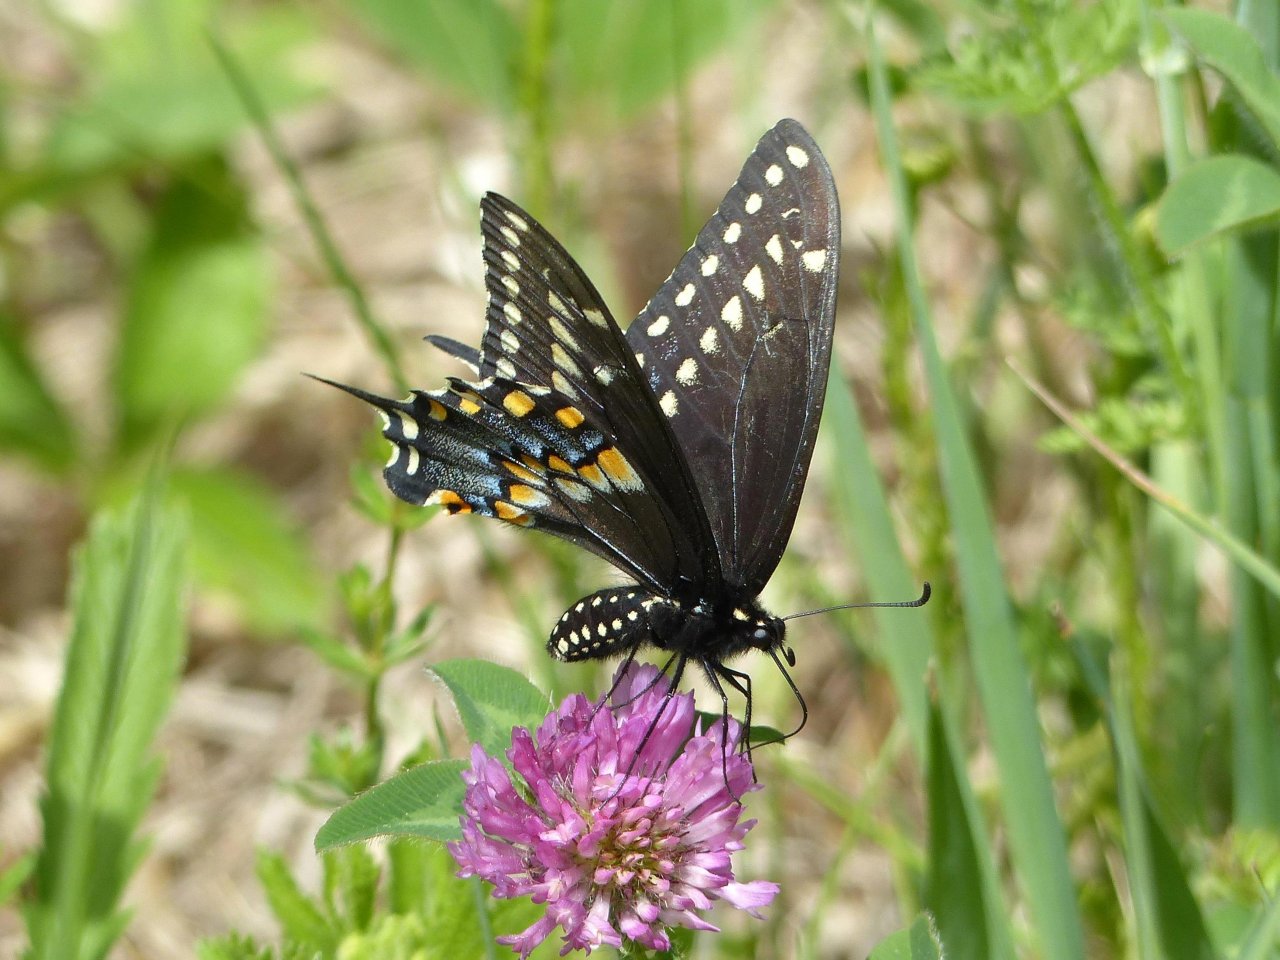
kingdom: Animalia
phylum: Arthropoda
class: Insecta
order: Lepidoptera
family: Papilionidae
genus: Papilio
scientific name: Papilio polyxenes
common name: Black Swallowtail
